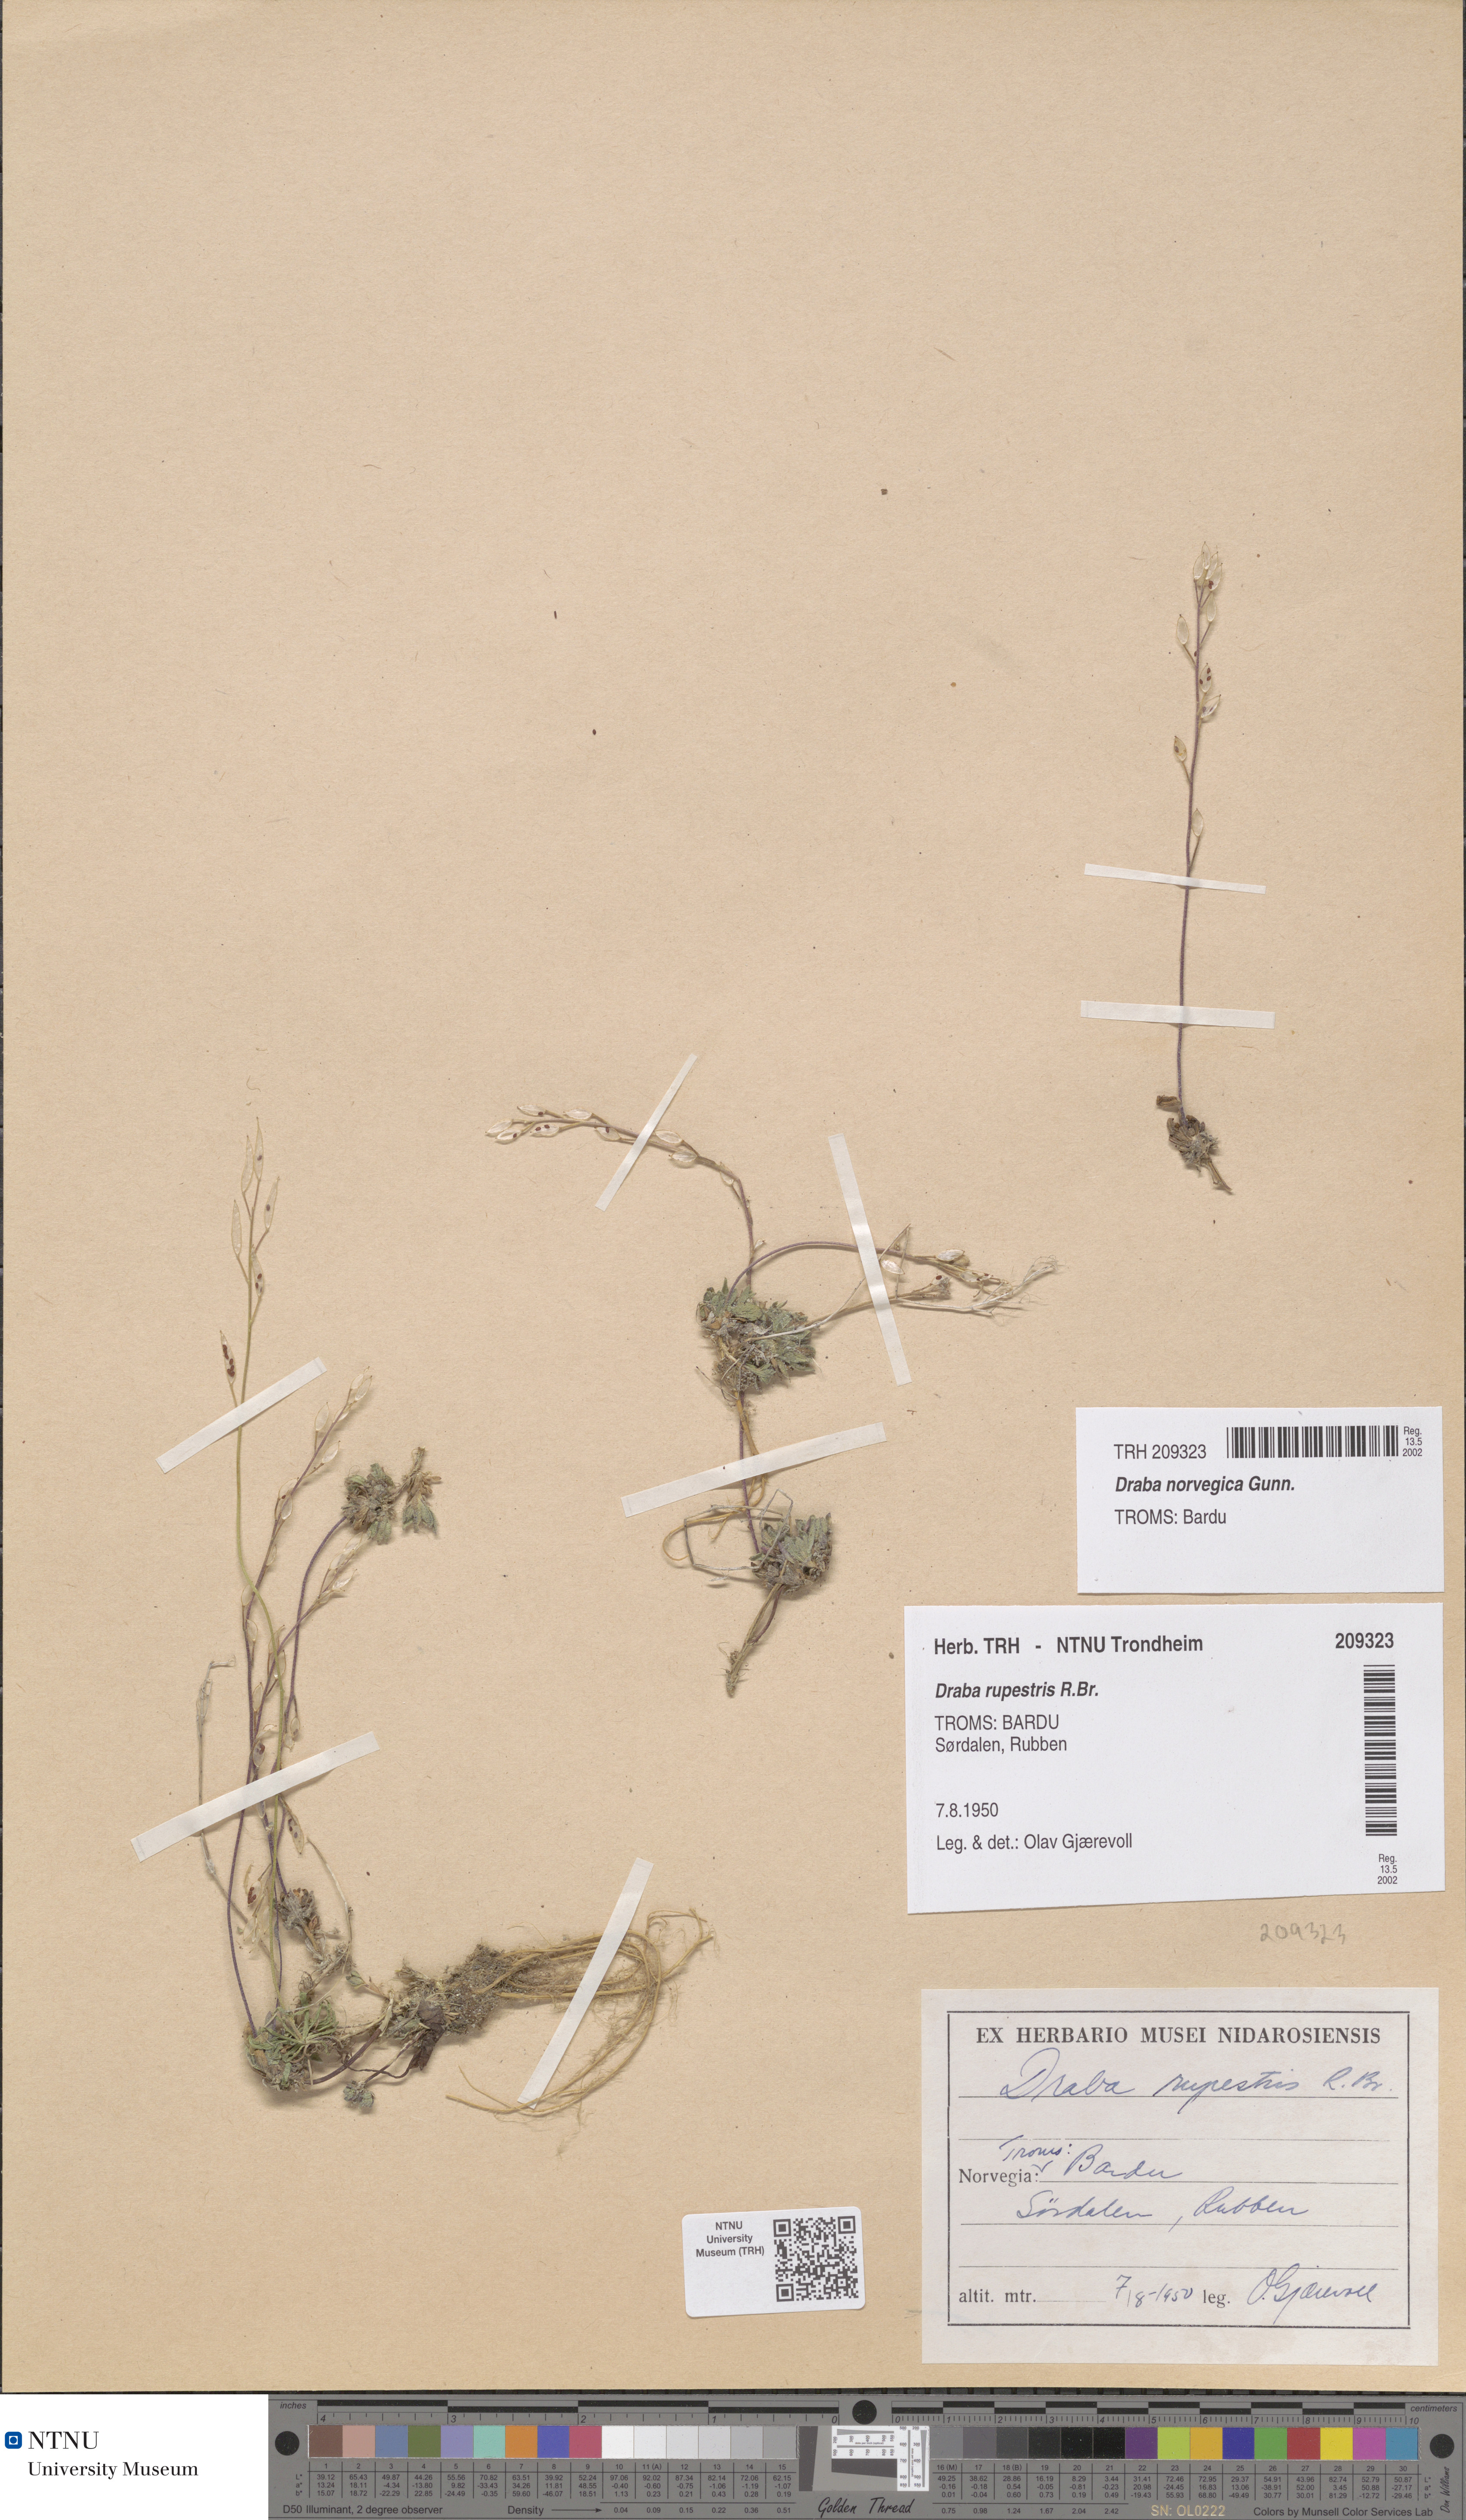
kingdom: Plantae
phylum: Tracheophyta
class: Magnoliopsida
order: Brassicales
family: Brassicaceae
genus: Draba
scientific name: Draba norvegica
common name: Rock whitlowgrass
